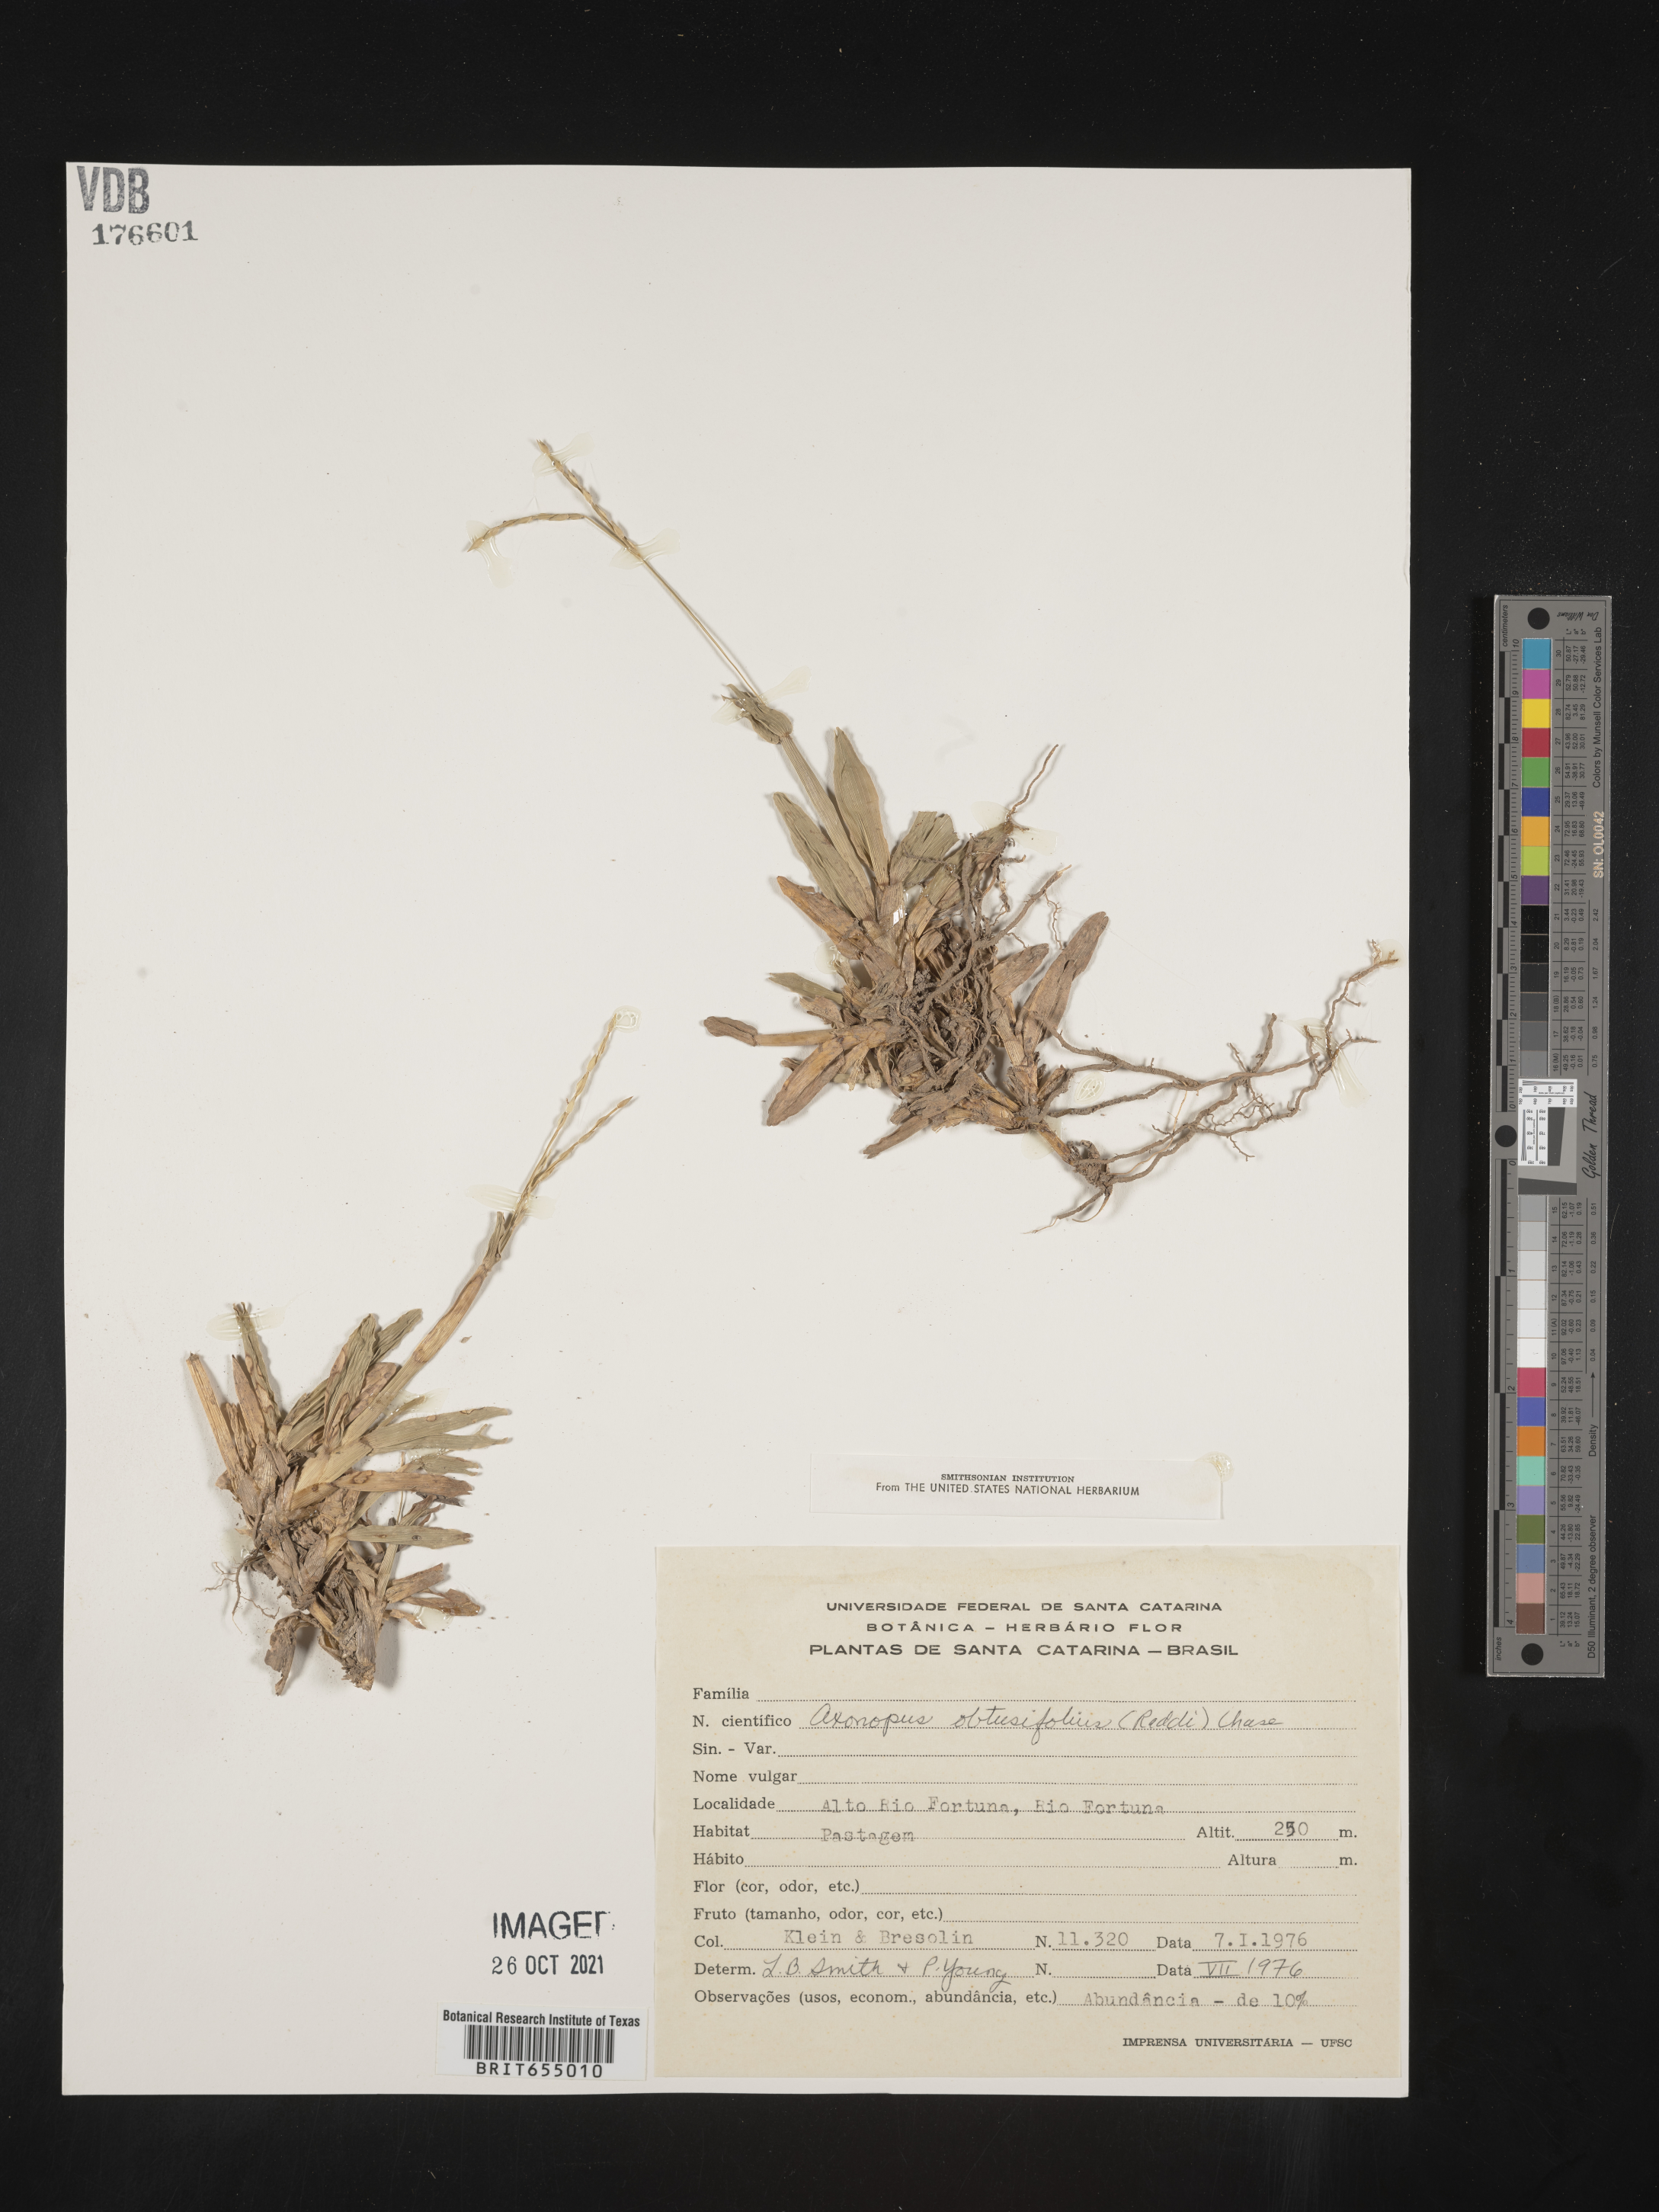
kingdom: Plantae
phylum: Tracheophyta
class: Liliopsida
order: Poales
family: Poaceae
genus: Axonopus
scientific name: Axonopus
